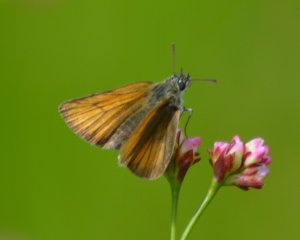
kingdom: Animalia
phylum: Arthropoda
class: Insecta
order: Lepidoptera
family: Hesperiidae
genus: Thymelicus
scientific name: Thymelicus lineola
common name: European Skipper
